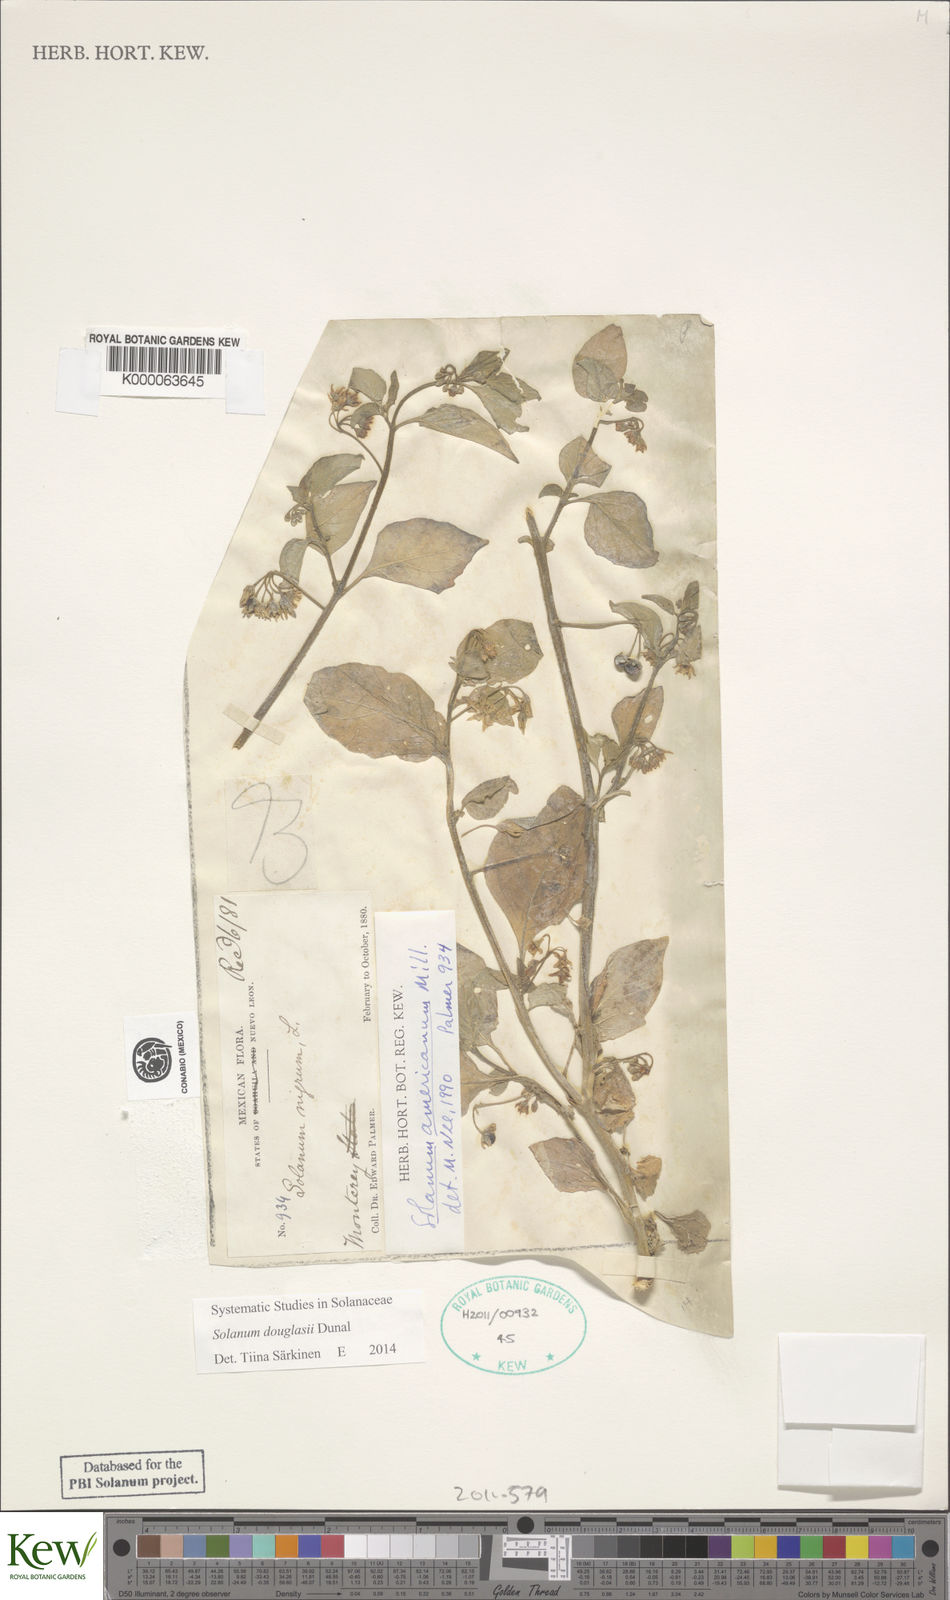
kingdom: Plantae
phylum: Tracheophyta
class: Magnoliopsida
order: Solanales
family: Solanaceae
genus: Solanum
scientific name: Solanum americanum
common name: American black nightshade
